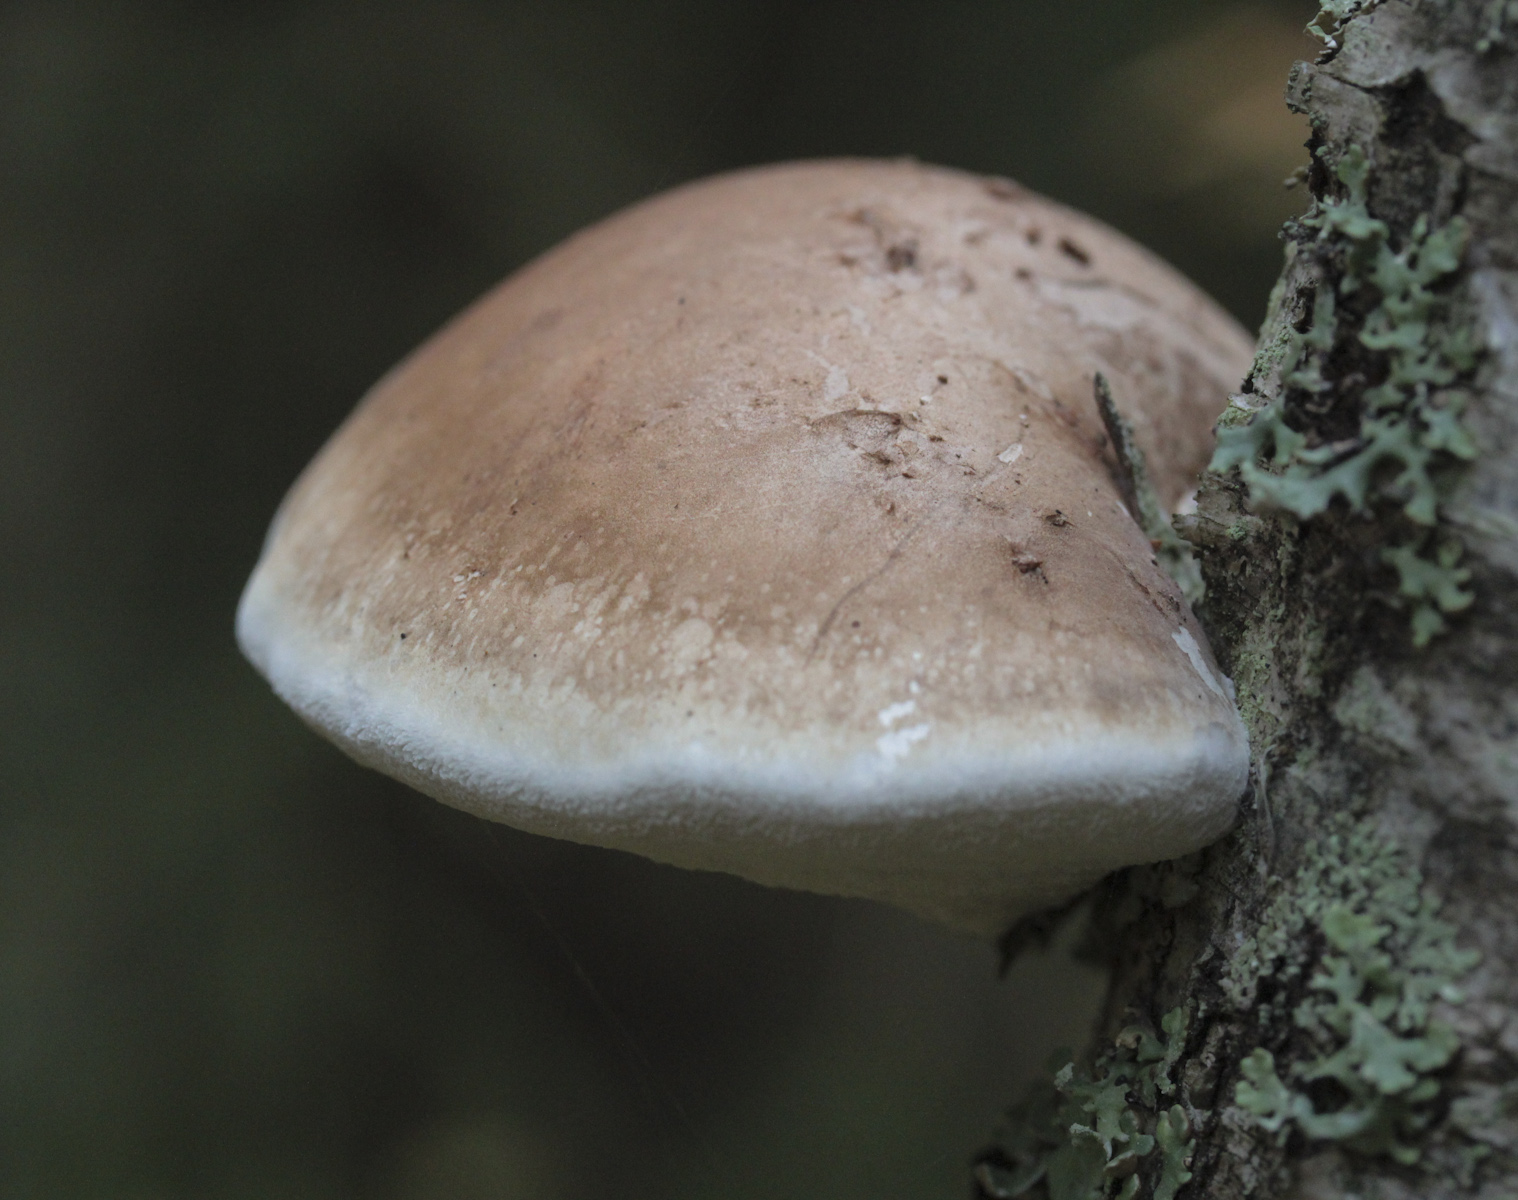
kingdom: Fungi
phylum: Basidiomycota
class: Agaricomycetes
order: Polyporales
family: Fomitopsidaceae
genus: Fomitopsis
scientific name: Fomitopsis betulina
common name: Birch polypore
